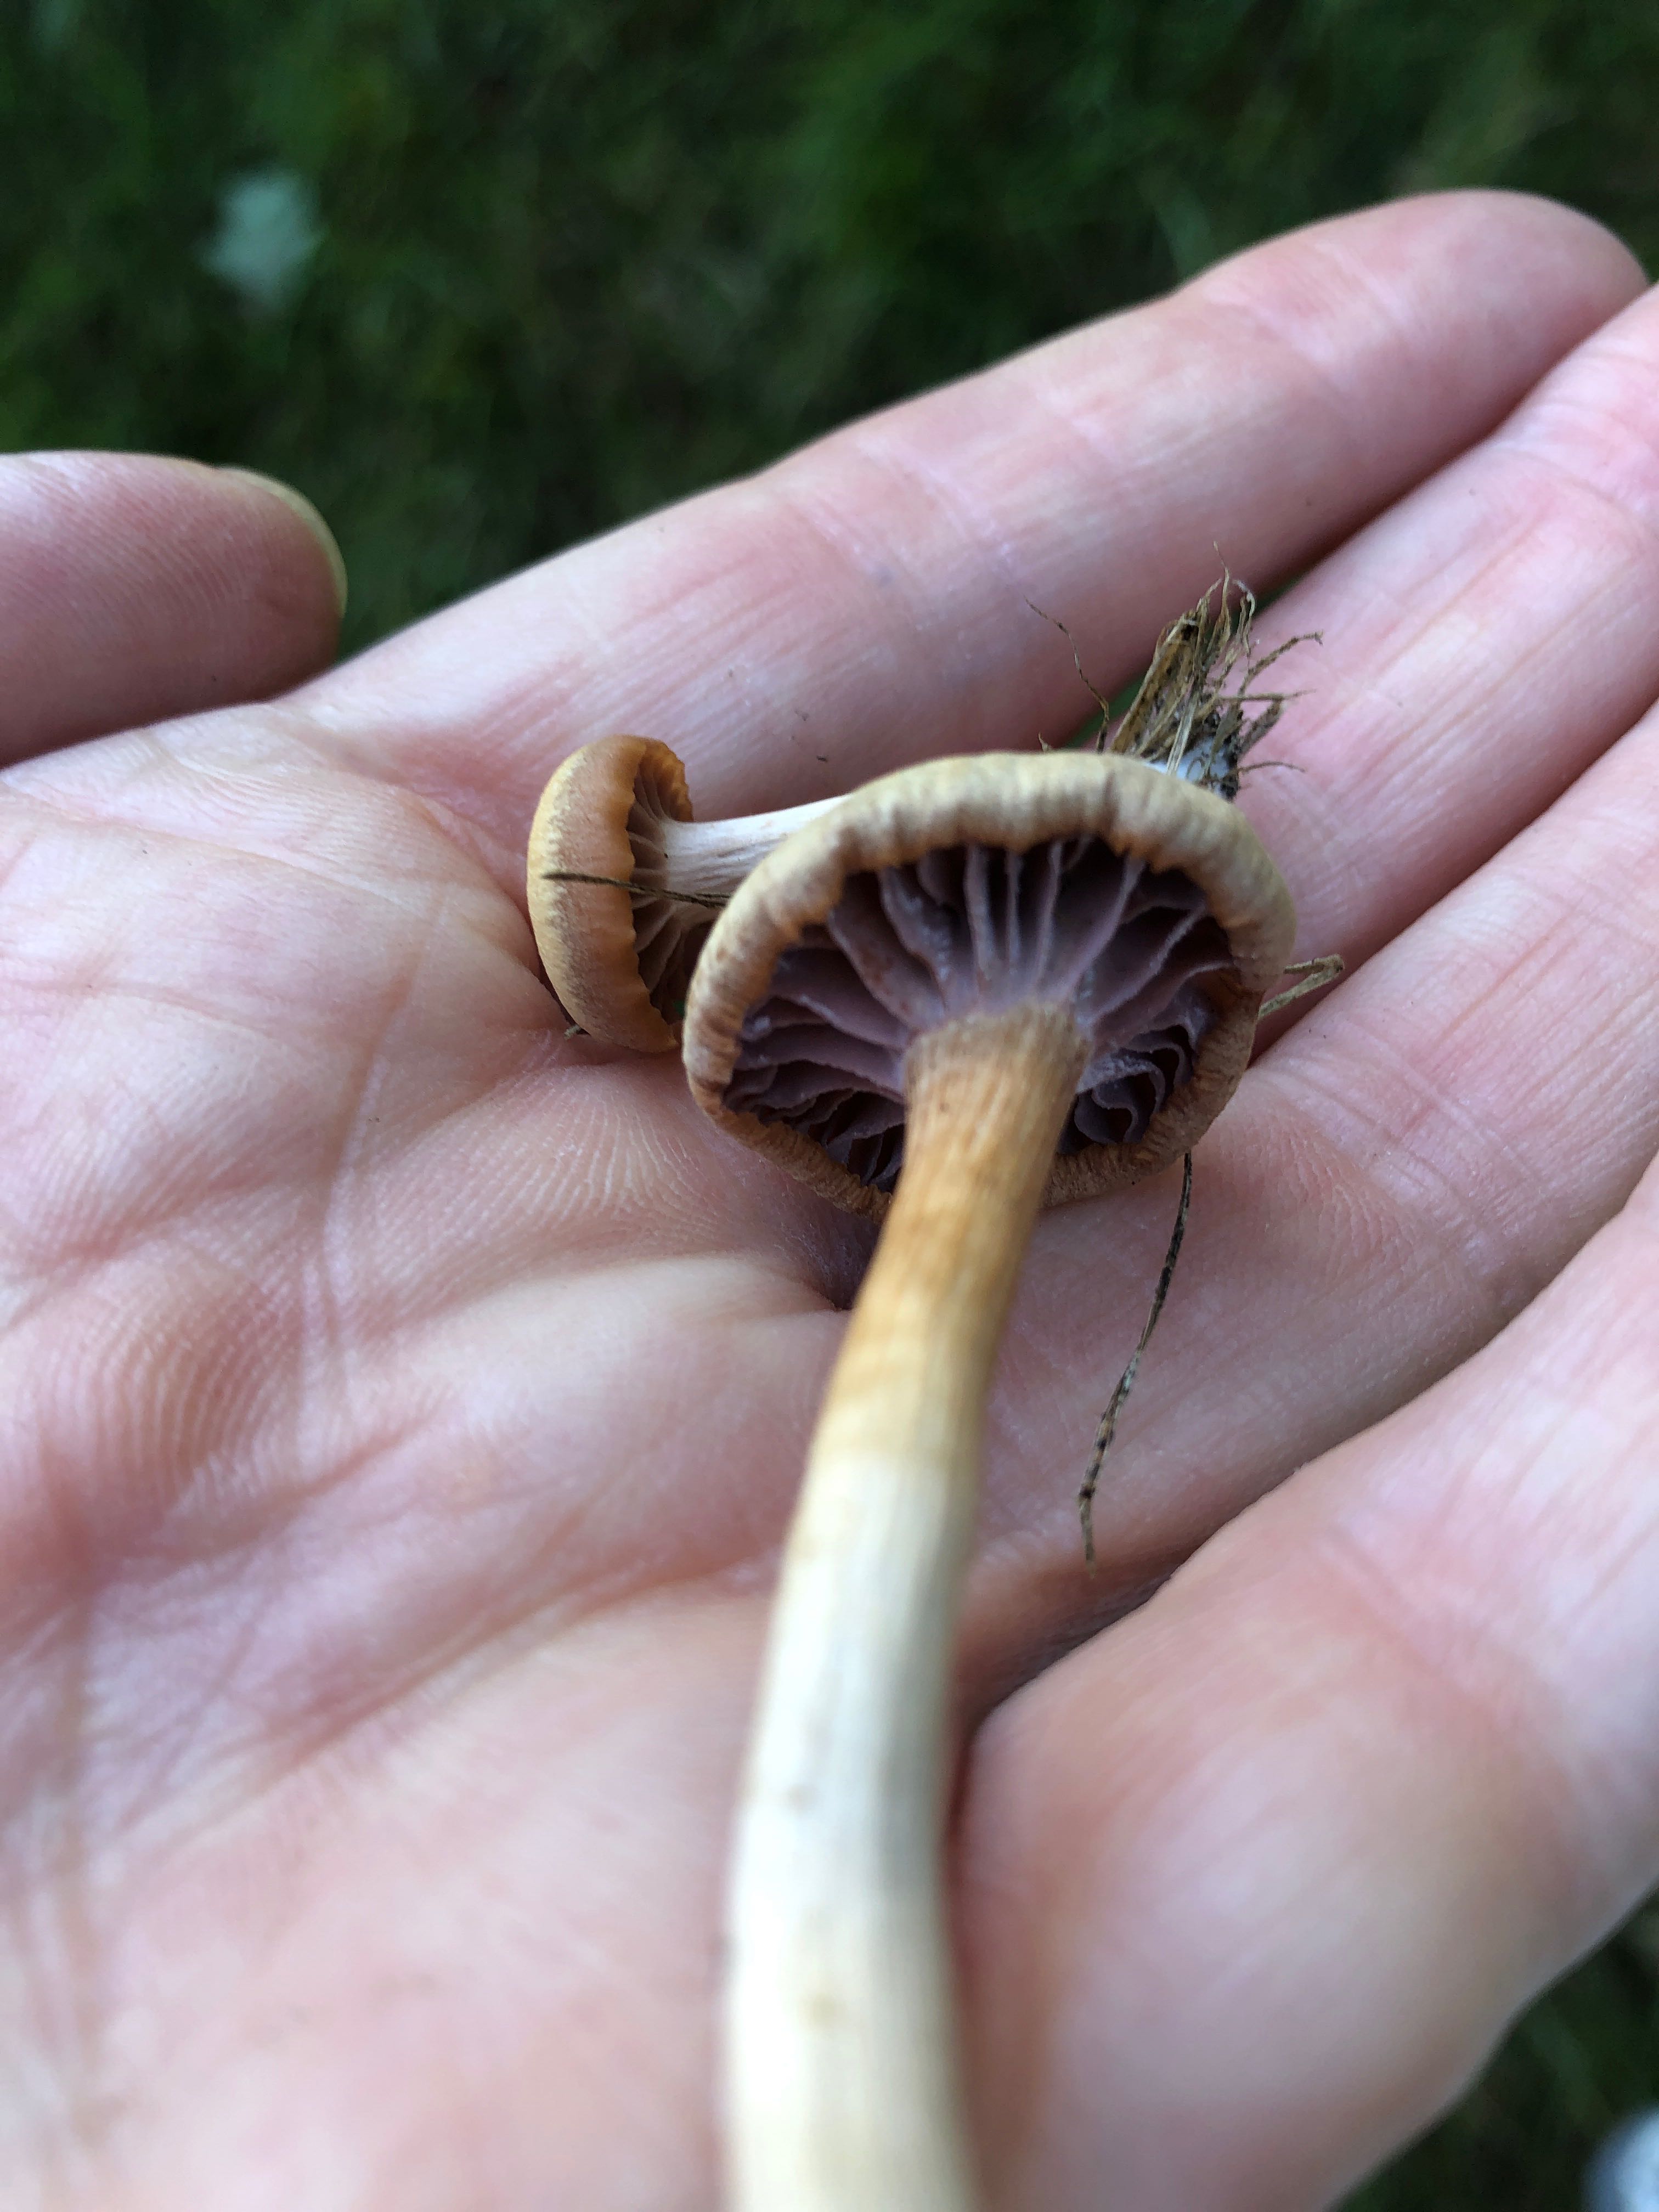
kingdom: Fungi
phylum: Basidiomycota
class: Agaricomycetes
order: Agaricales
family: Hydnangiaceae
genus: Laccaria
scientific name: Laccaria laccata
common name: rød ametysthat
